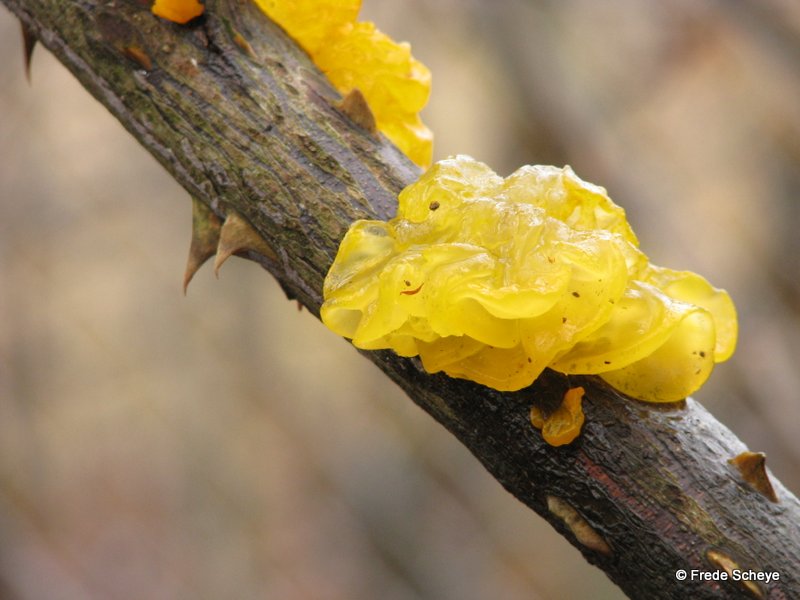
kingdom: Fungi
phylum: Basidiomycota
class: Tremellomycetes
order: Tremellales
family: Tremellaceae
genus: Tremella
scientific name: Tremella mesenterica
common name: gul bævresvamp
